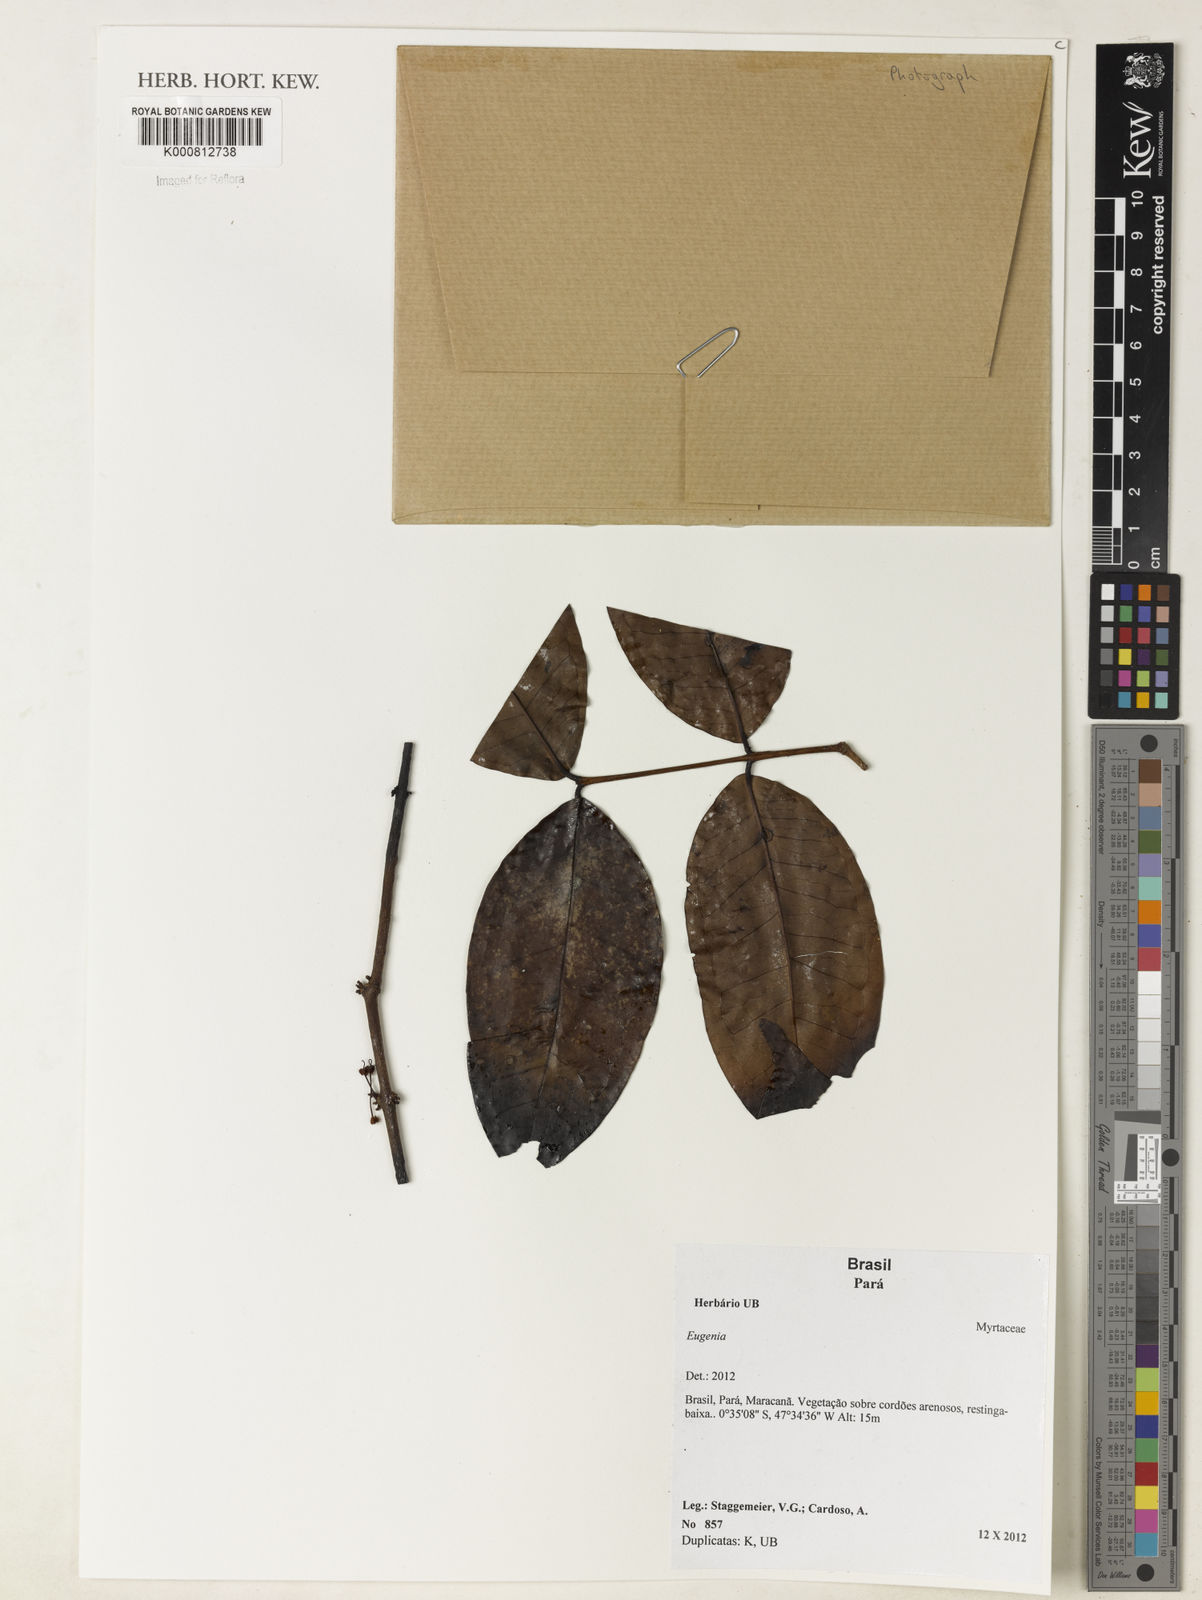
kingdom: Plantae
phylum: Tracheophyta
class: Magnoliopsida
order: Myrtales
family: Myrtaceae
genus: Eugenia
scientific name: Eugenia
